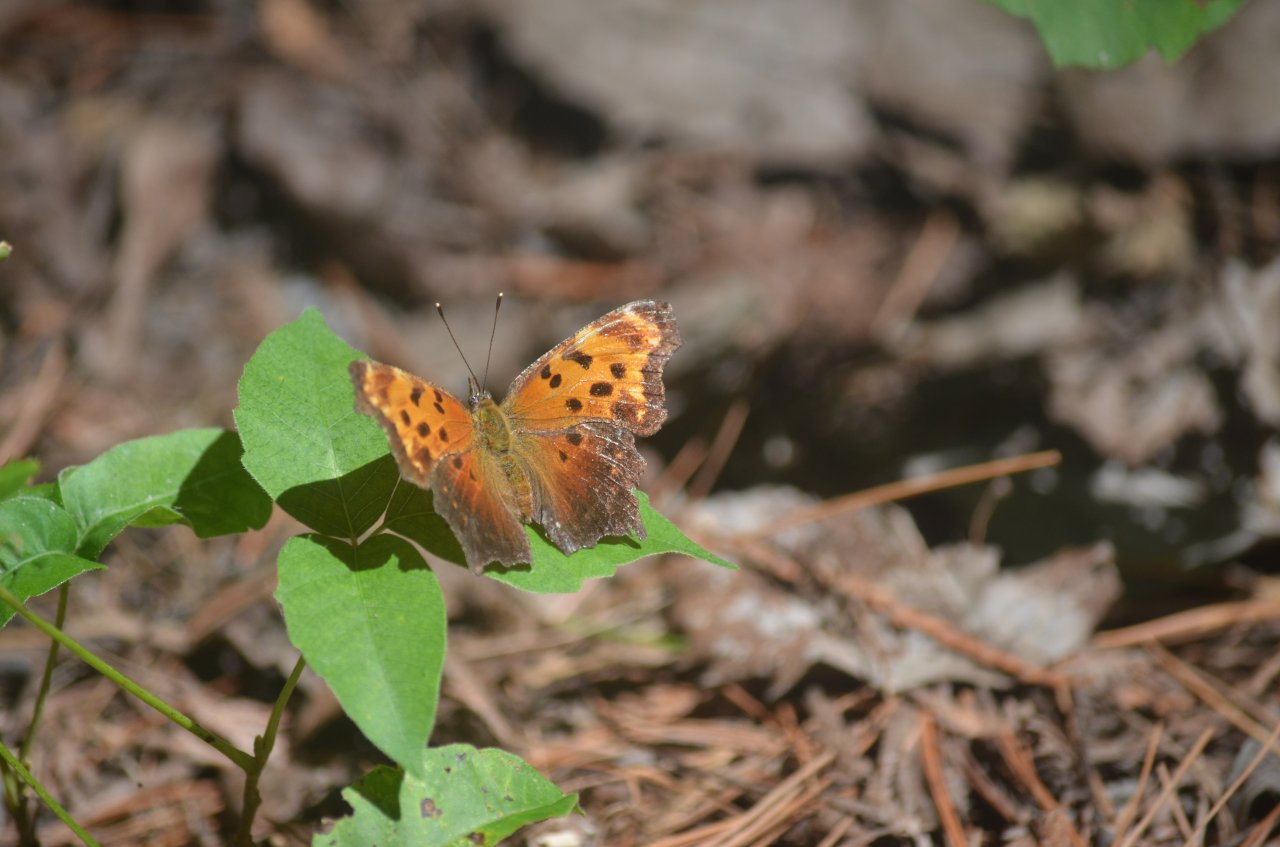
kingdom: Animalia
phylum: Arthropoda
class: Insecta
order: Lepidoptera
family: Nymphalidae
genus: Polygonia
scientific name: Polygonia progne
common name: Gray Comma
